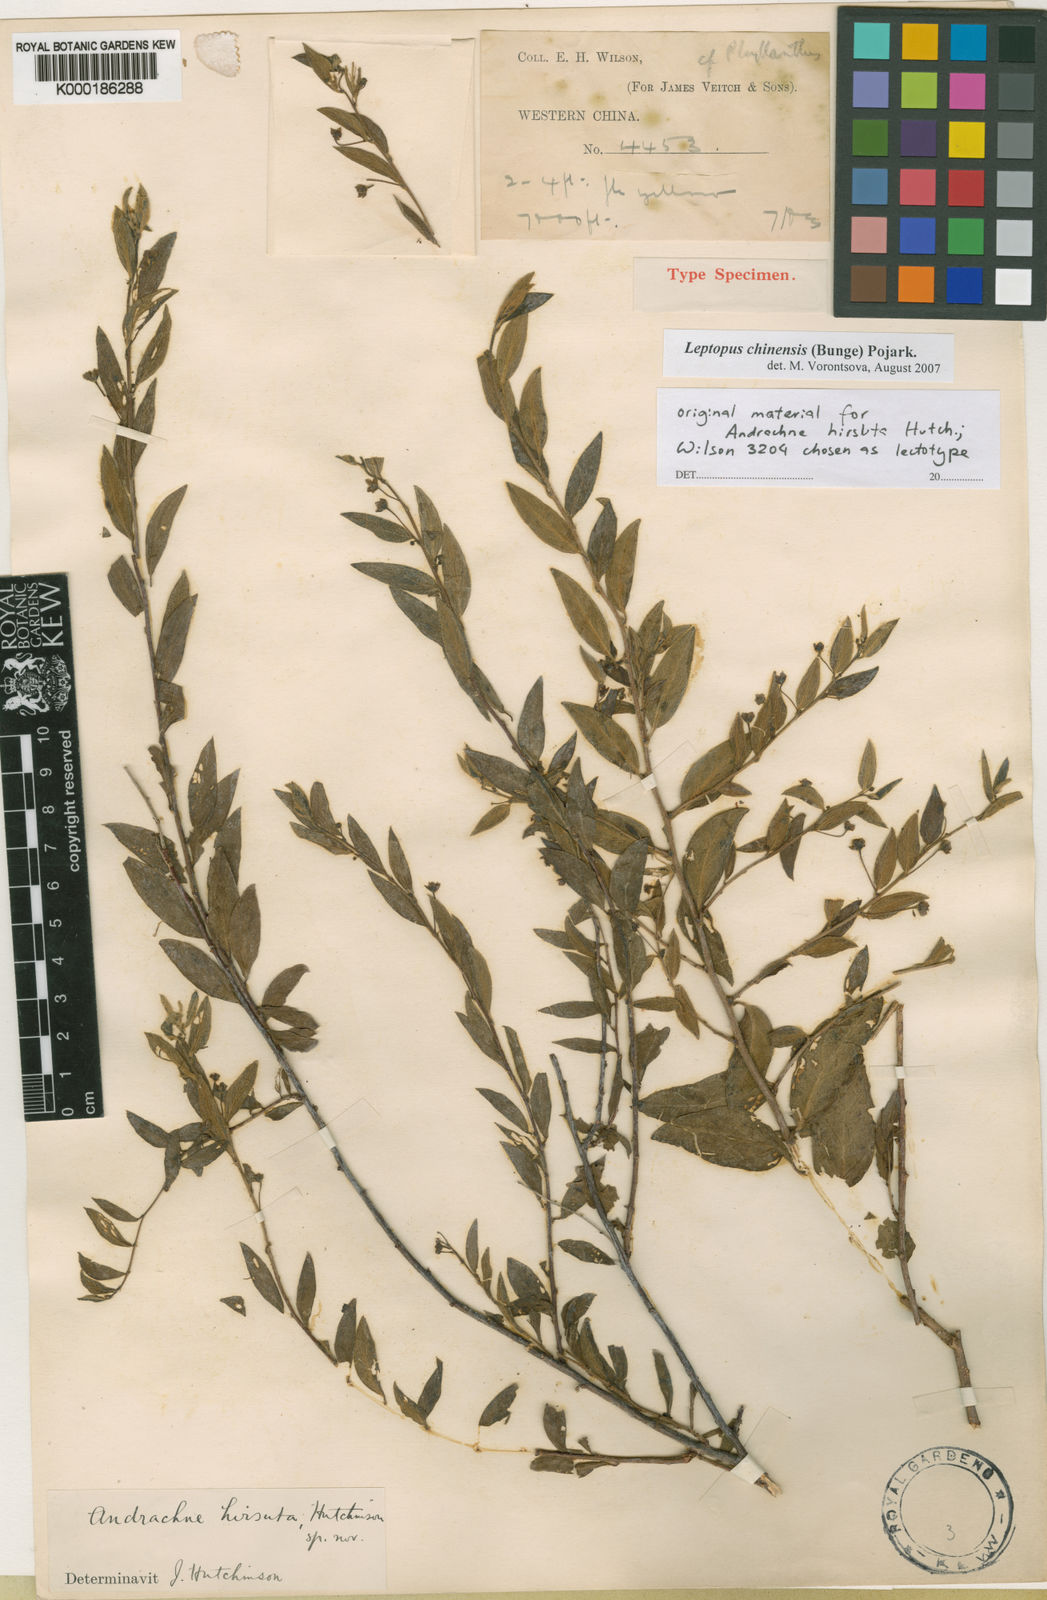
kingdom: Plantae
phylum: Tracheophyta
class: Magnoliopsida
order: Malpighiales
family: Phyllanthaceae
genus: Leptopus
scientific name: Leptopus chinensis
